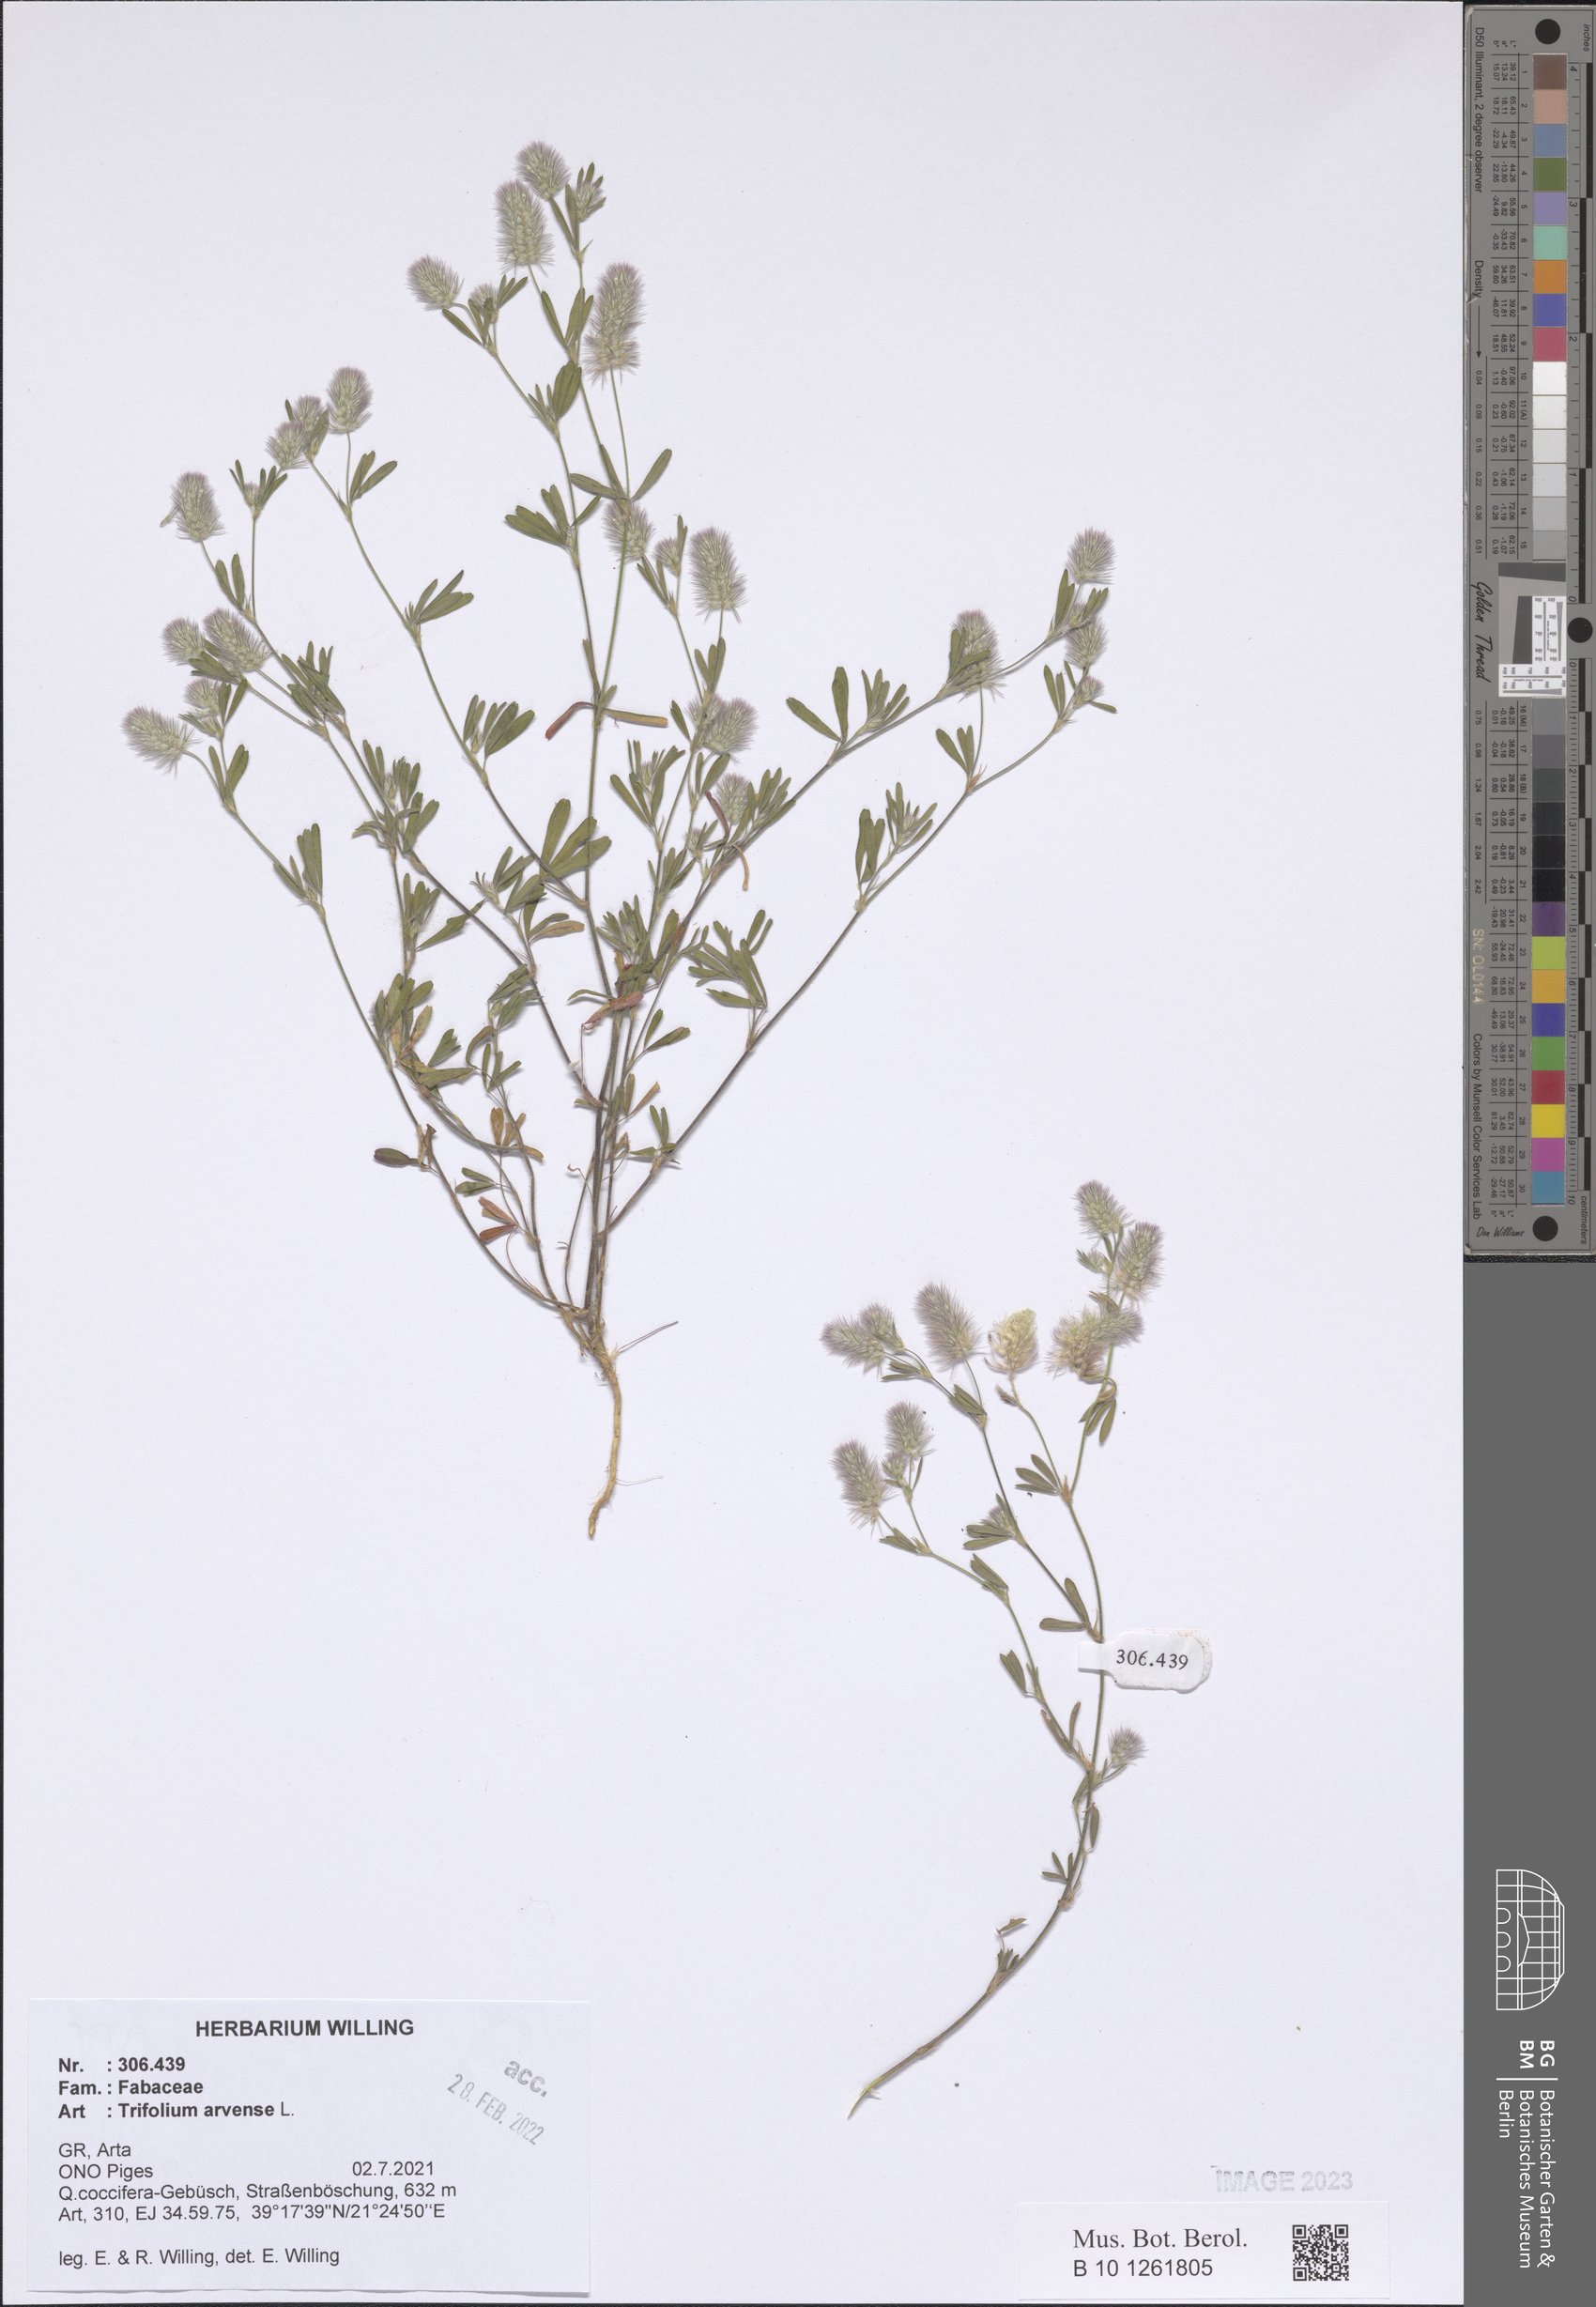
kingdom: Plantae
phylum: Tracheophyta
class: Magnoliopsida
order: Fabales
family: Fabaceae
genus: Trifolium
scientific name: Trifolium arvense
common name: Hare's-foot clover
